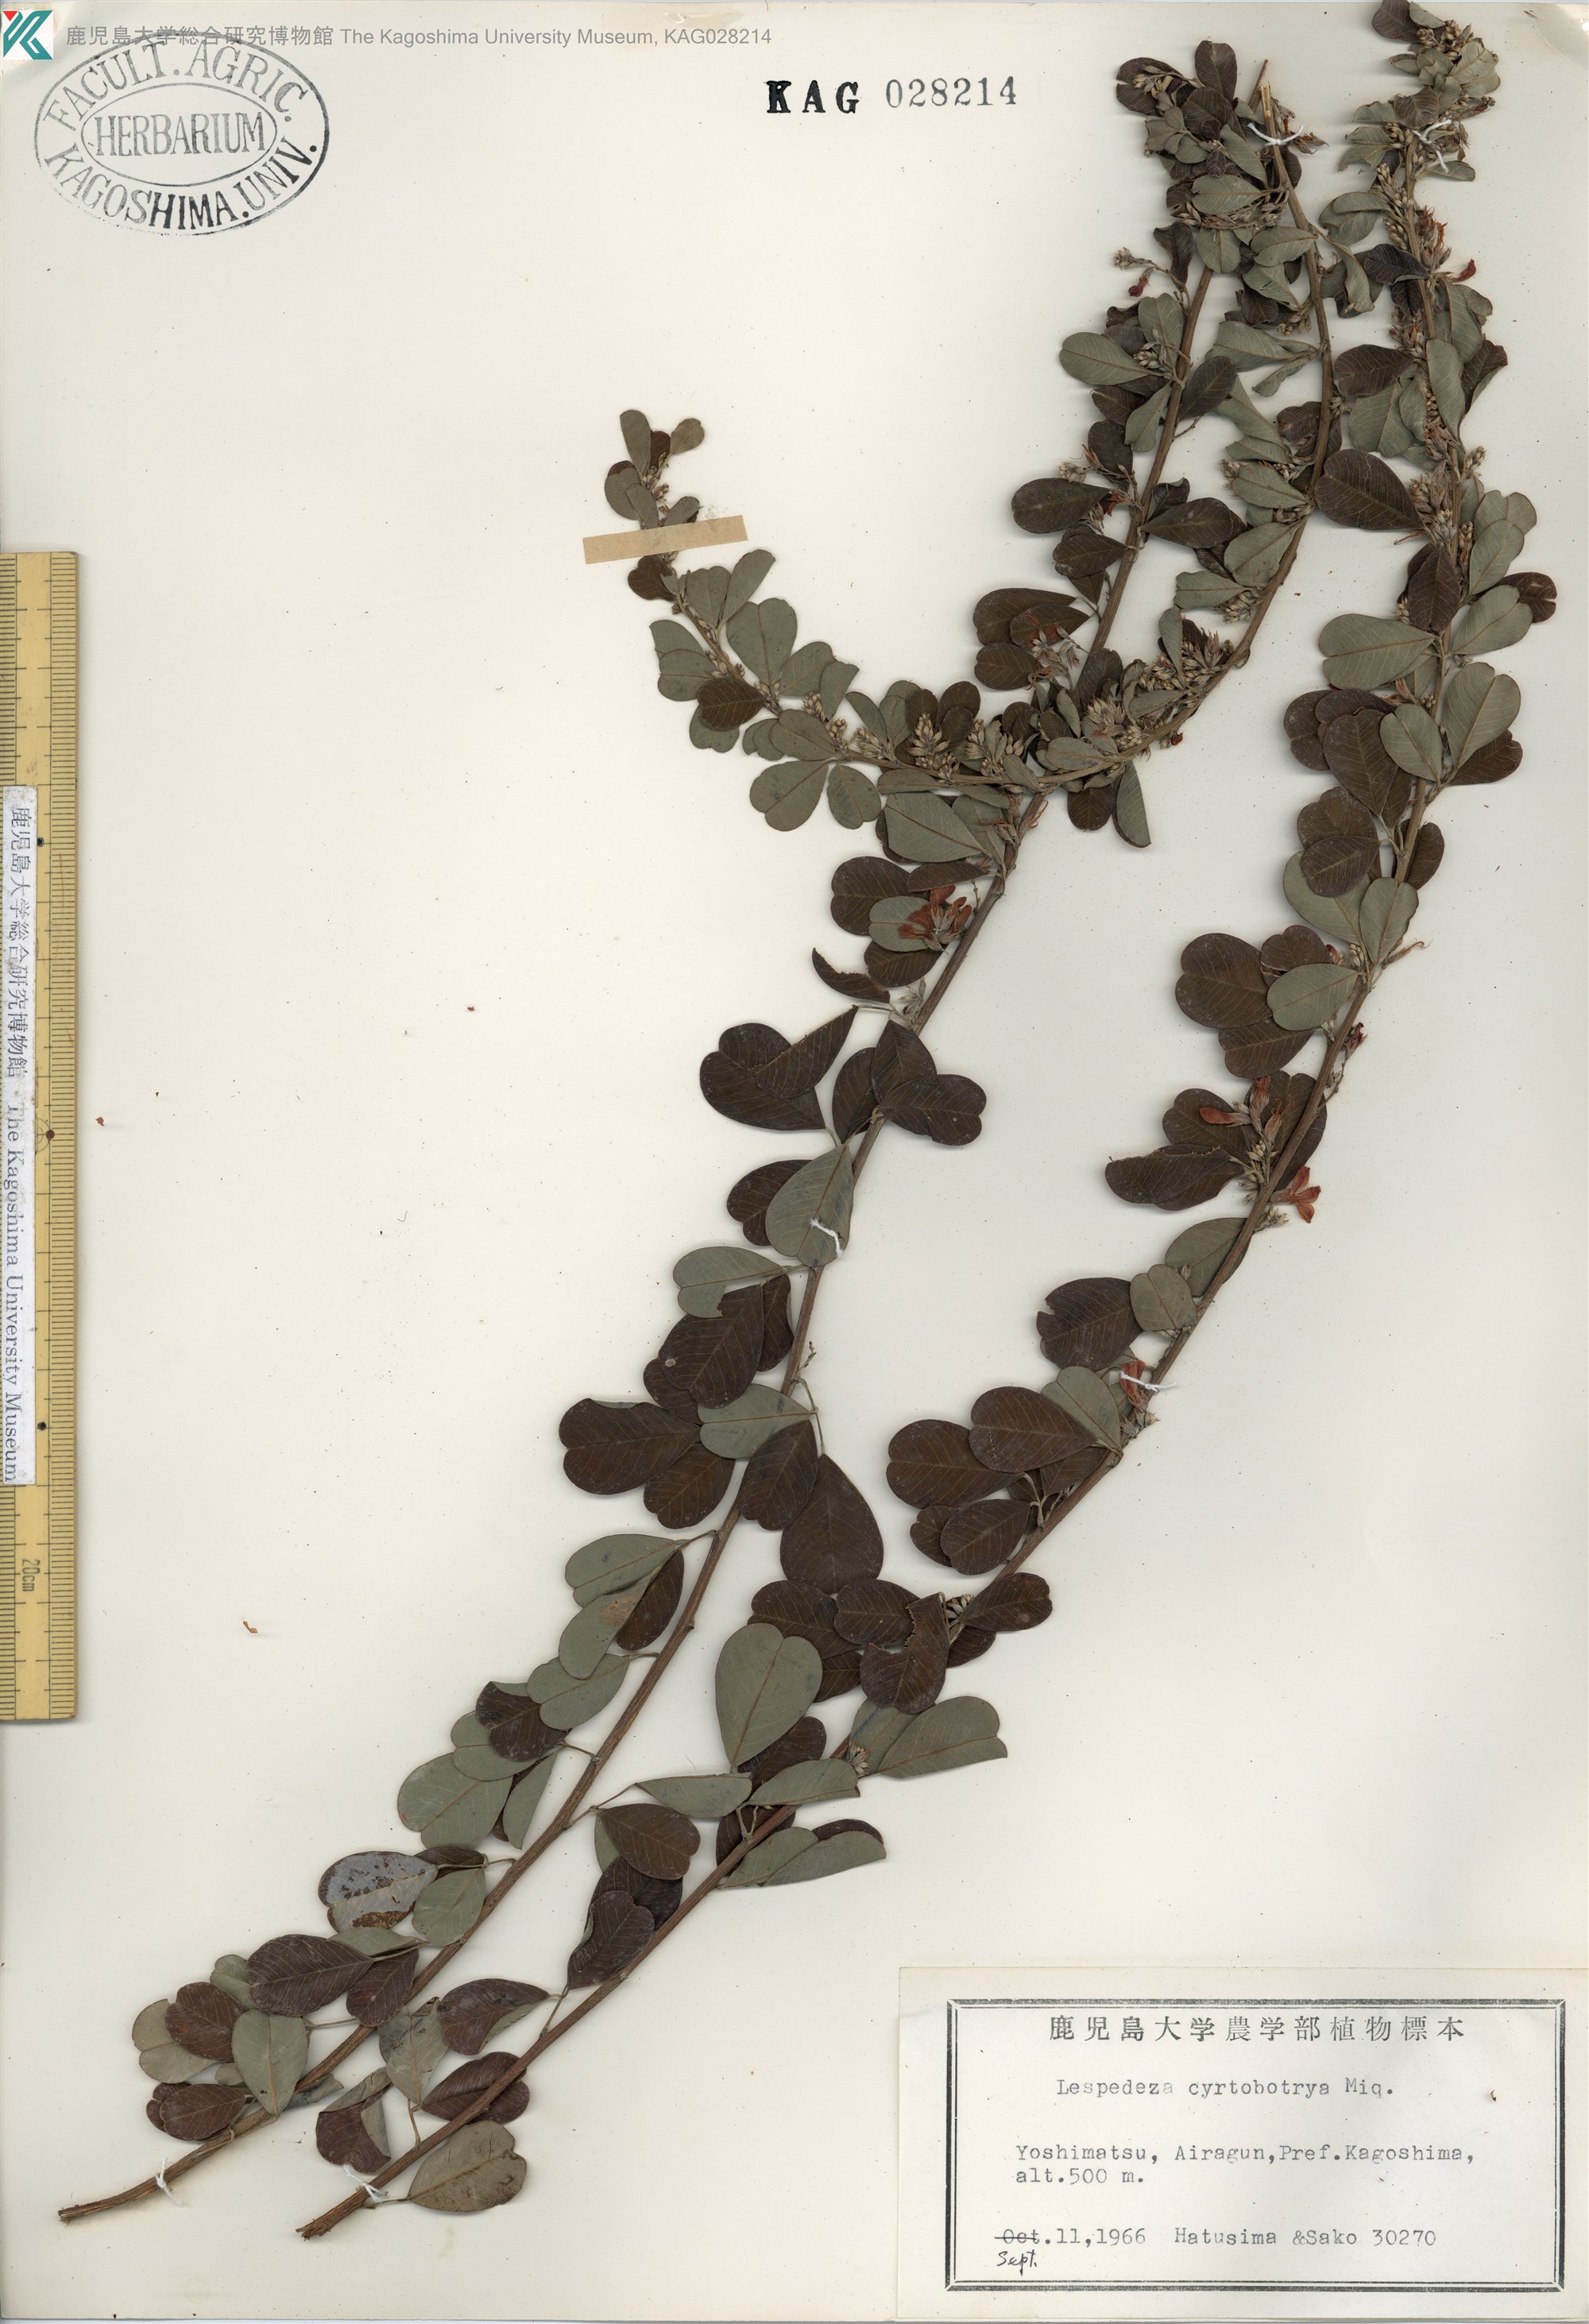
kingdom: Plantae
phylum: Tracheophyta
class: Magnoliopsida
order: Fabales
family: Fabaceae
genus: Lespedeza
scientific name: Lespedeza cyrtobotrya
